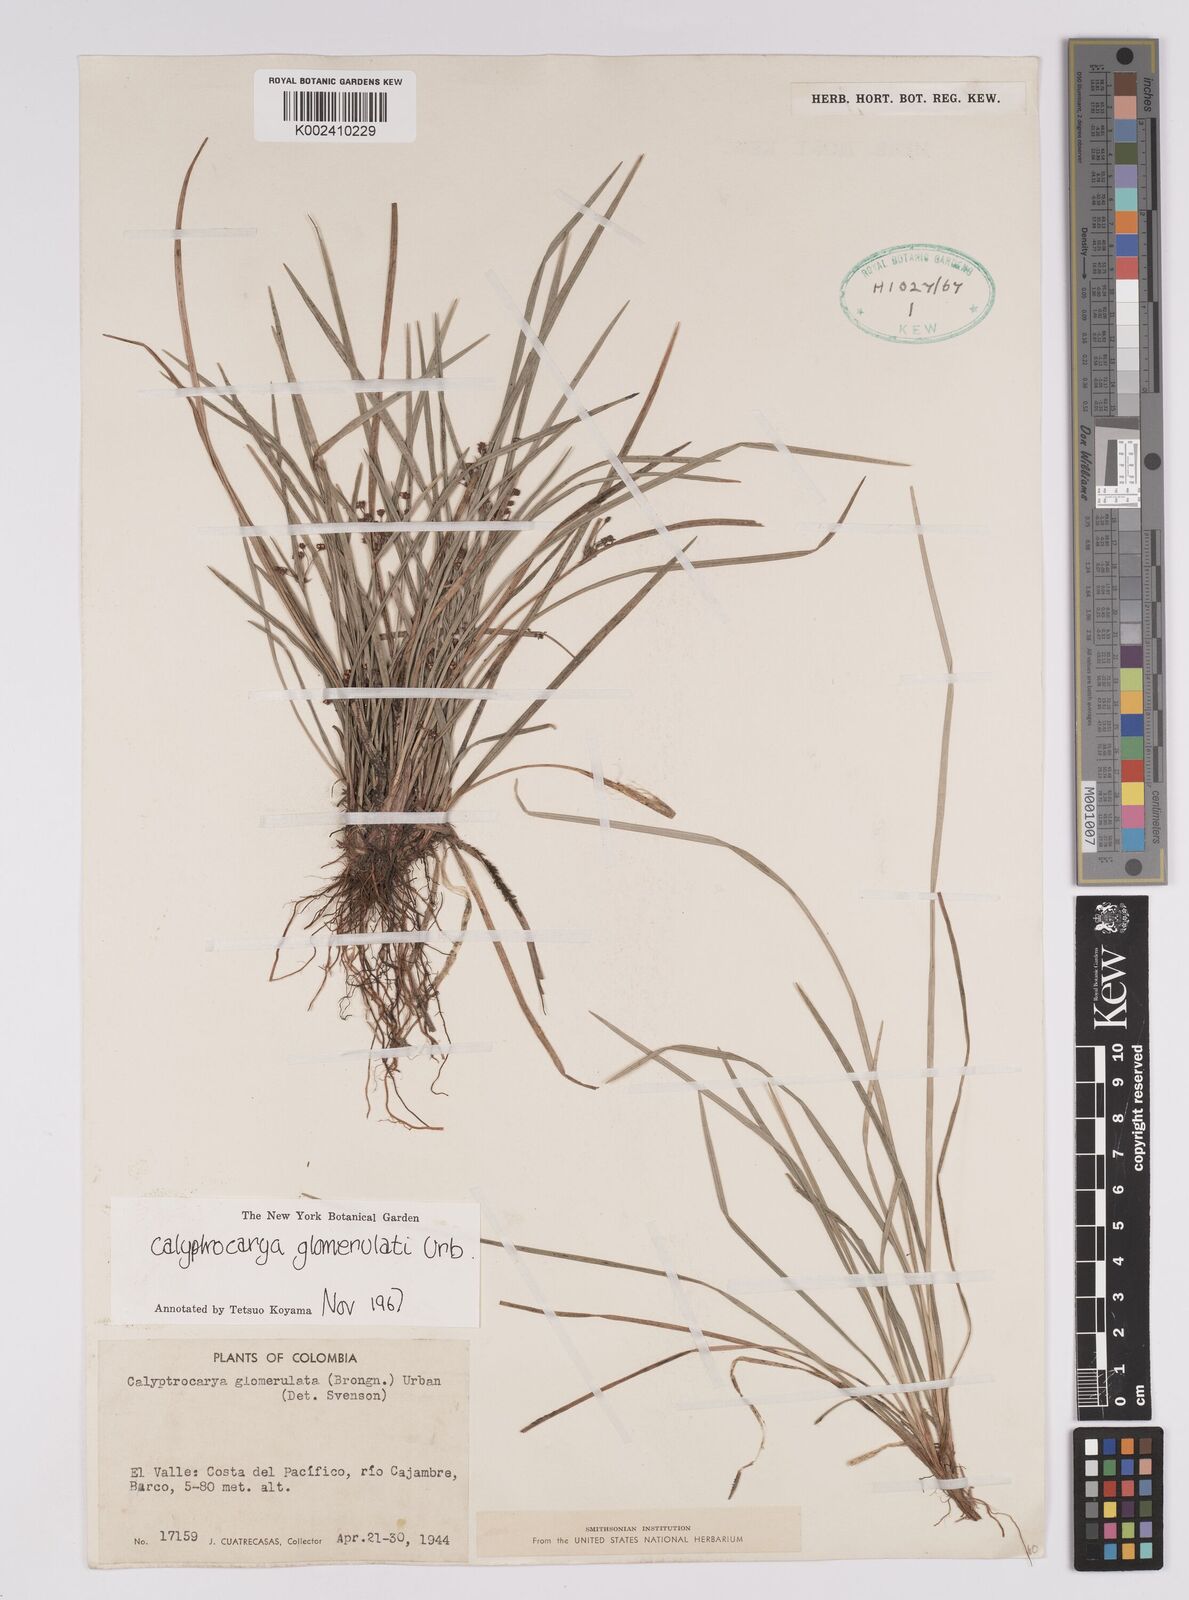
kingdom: Plantae
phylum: Tracheophyta
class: Liliopsida
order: Poales
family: Cyperaceae
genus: Calyptrocarya
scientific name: Calyptrocarya glomerulata
